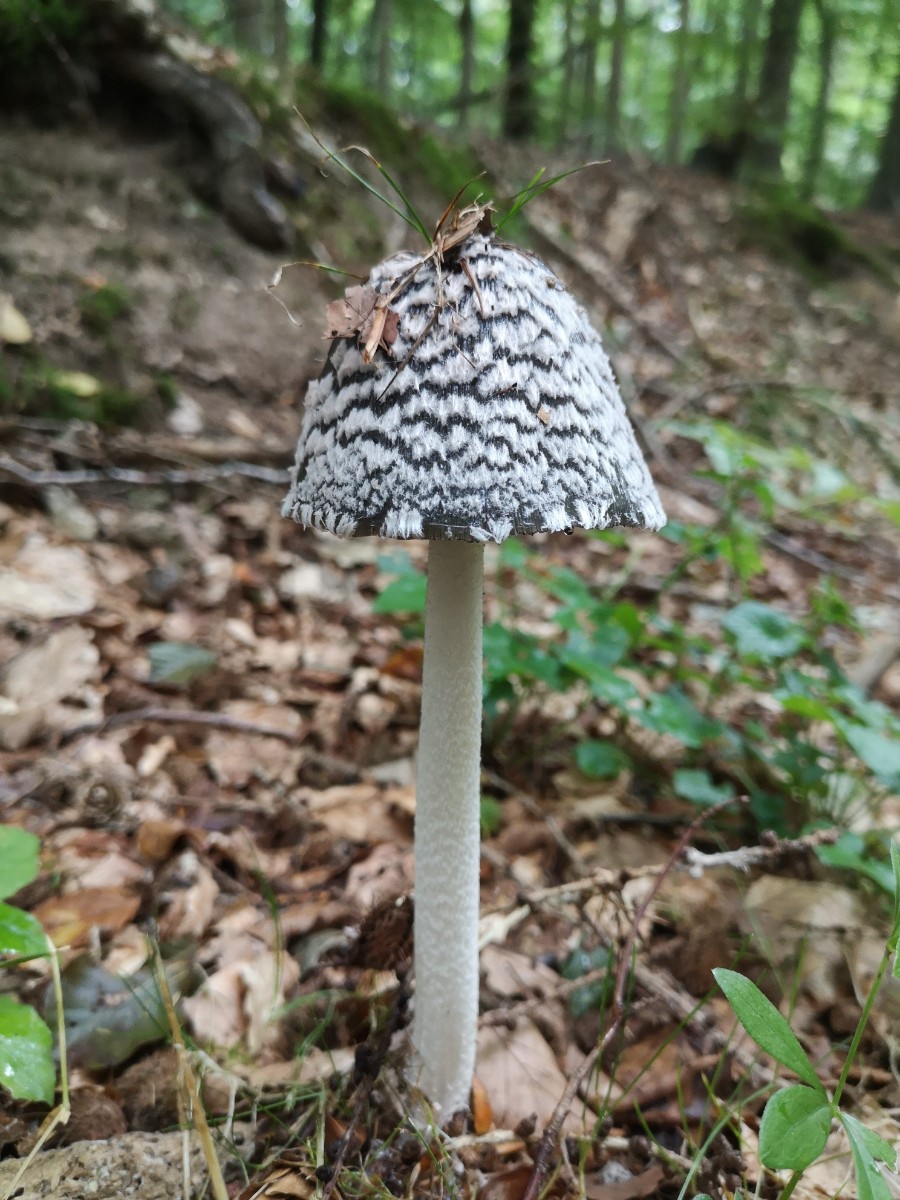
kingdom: Fungi
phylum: Basidiomycota
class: Agaricomycetes
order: Agaricales
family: Psathyrellaceae
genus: Coprinopsis
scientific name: Coprinopsis picacea
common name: skade-blækhat
